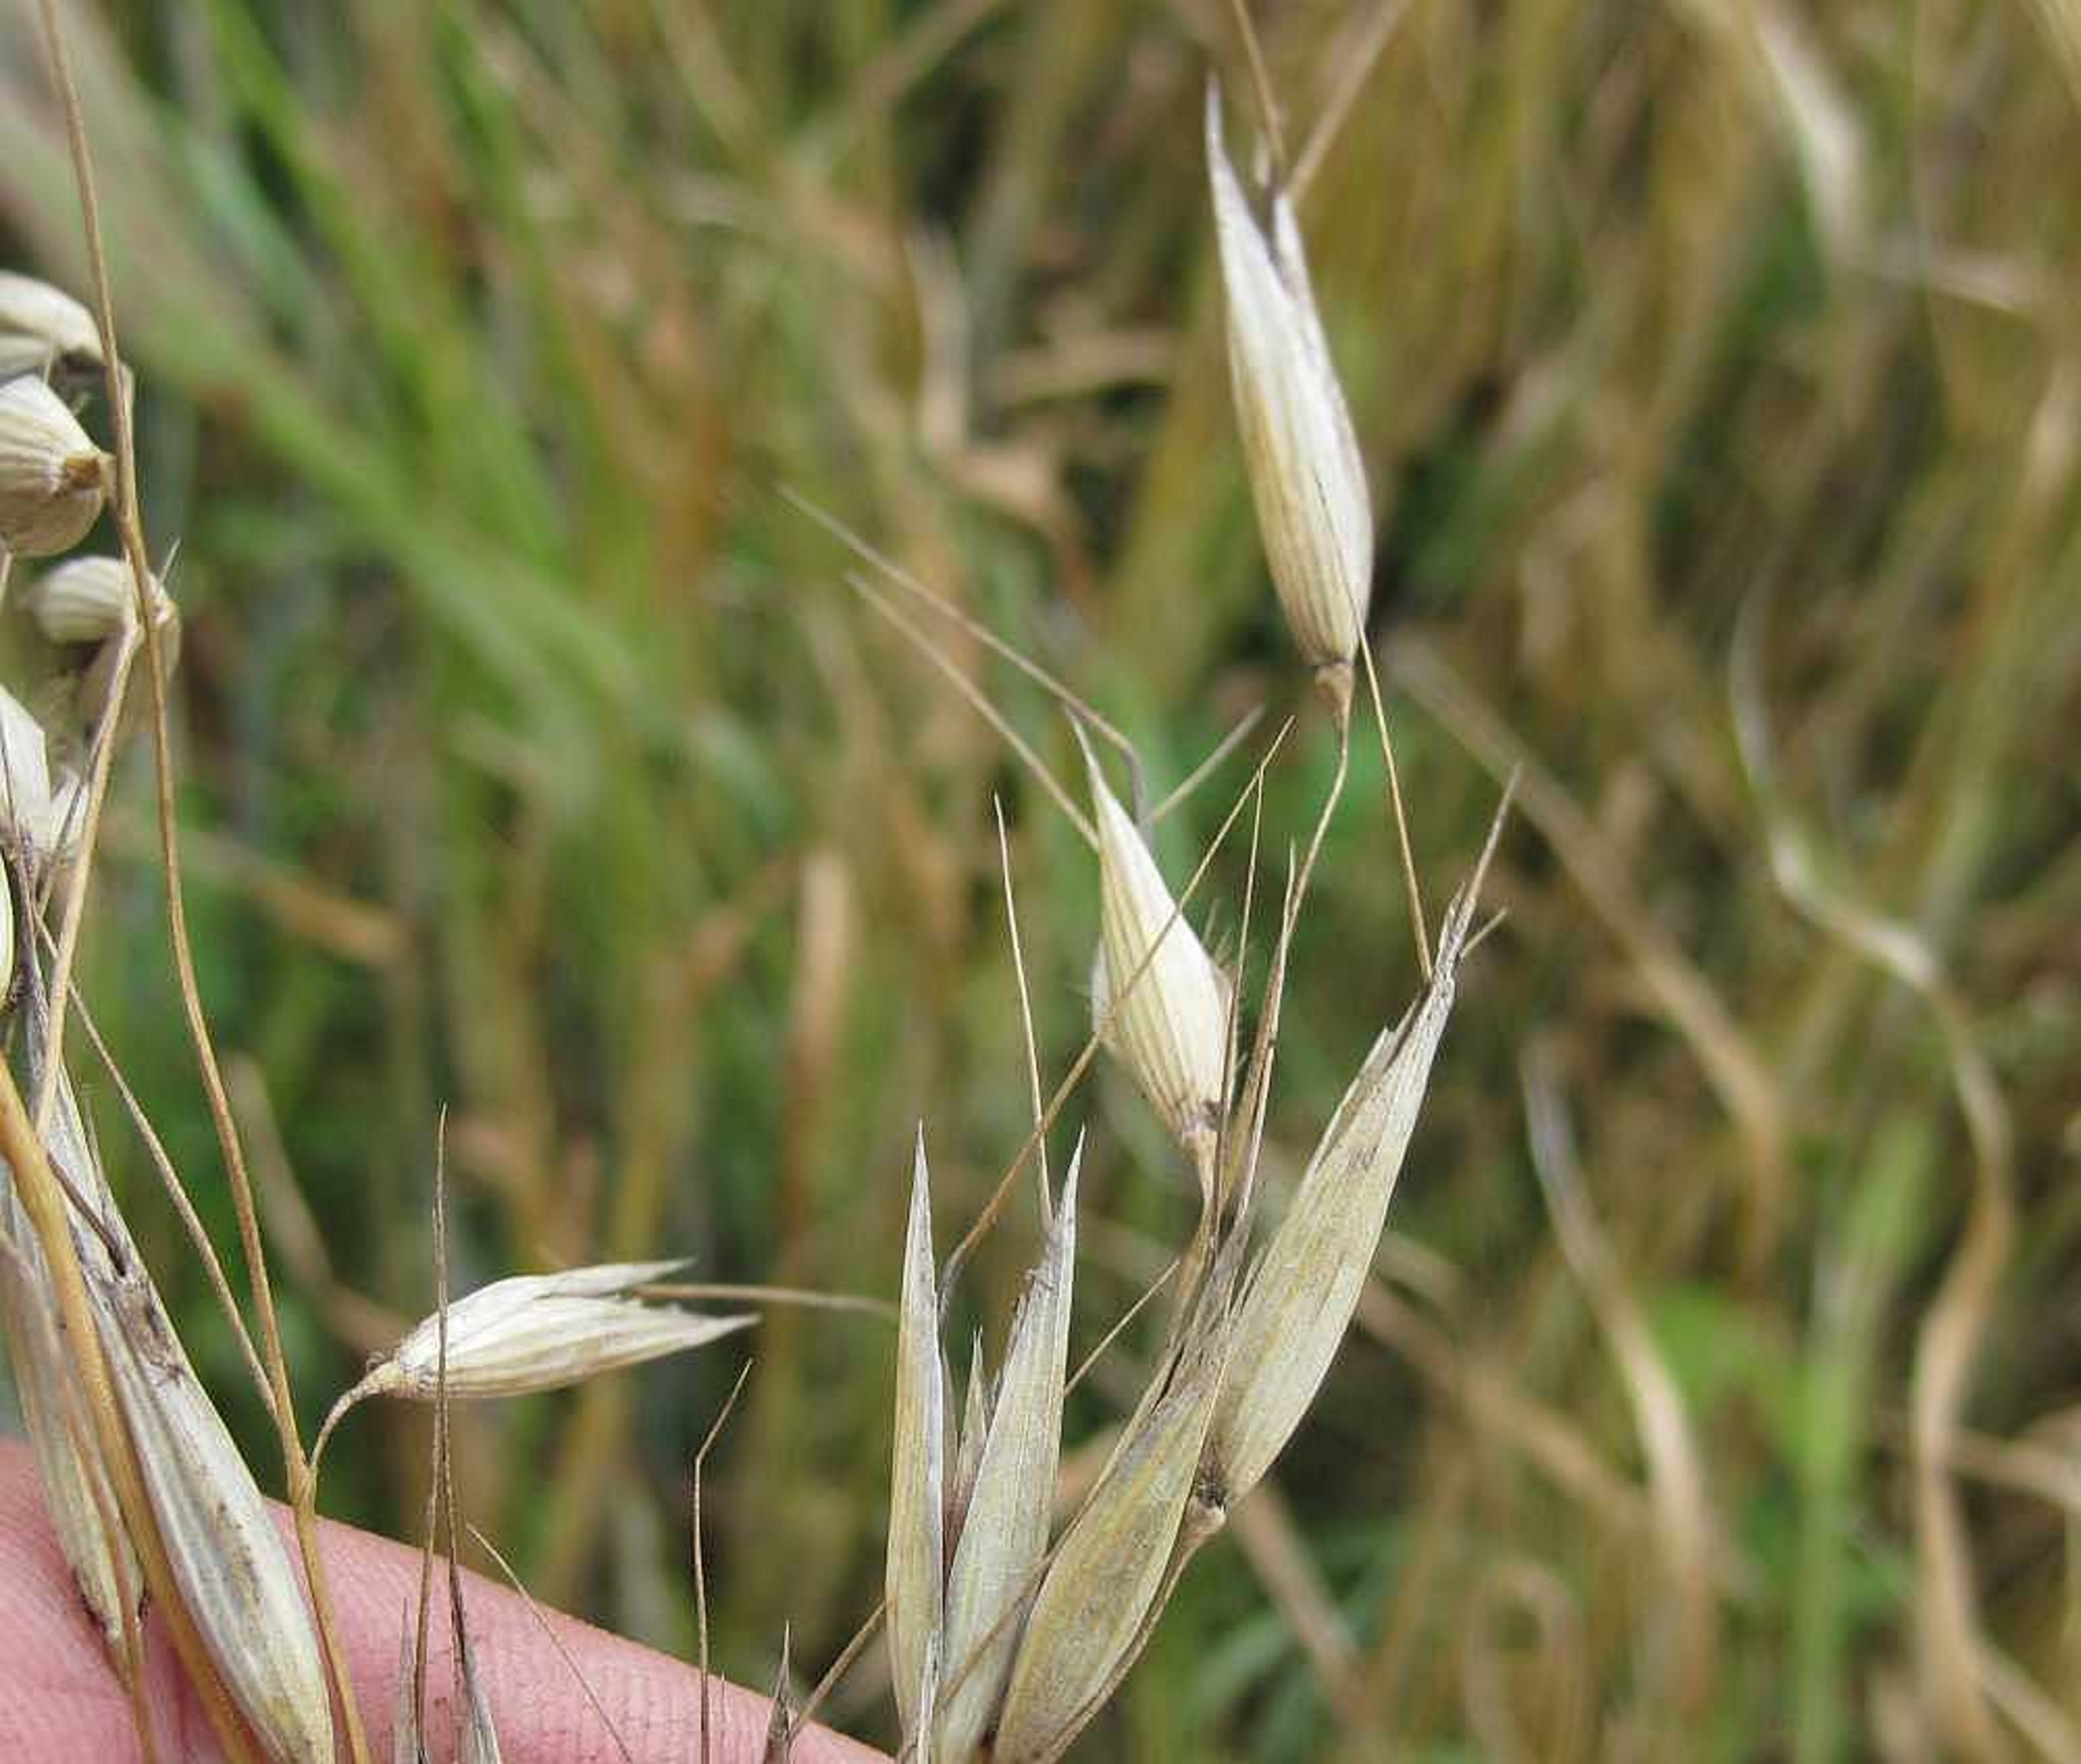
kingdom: Plantae
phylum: Tracheophyta
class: Liliopsida
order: Poales
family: Poaceae
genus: Avena
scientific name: Avena fatua
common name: Flyve-havre
